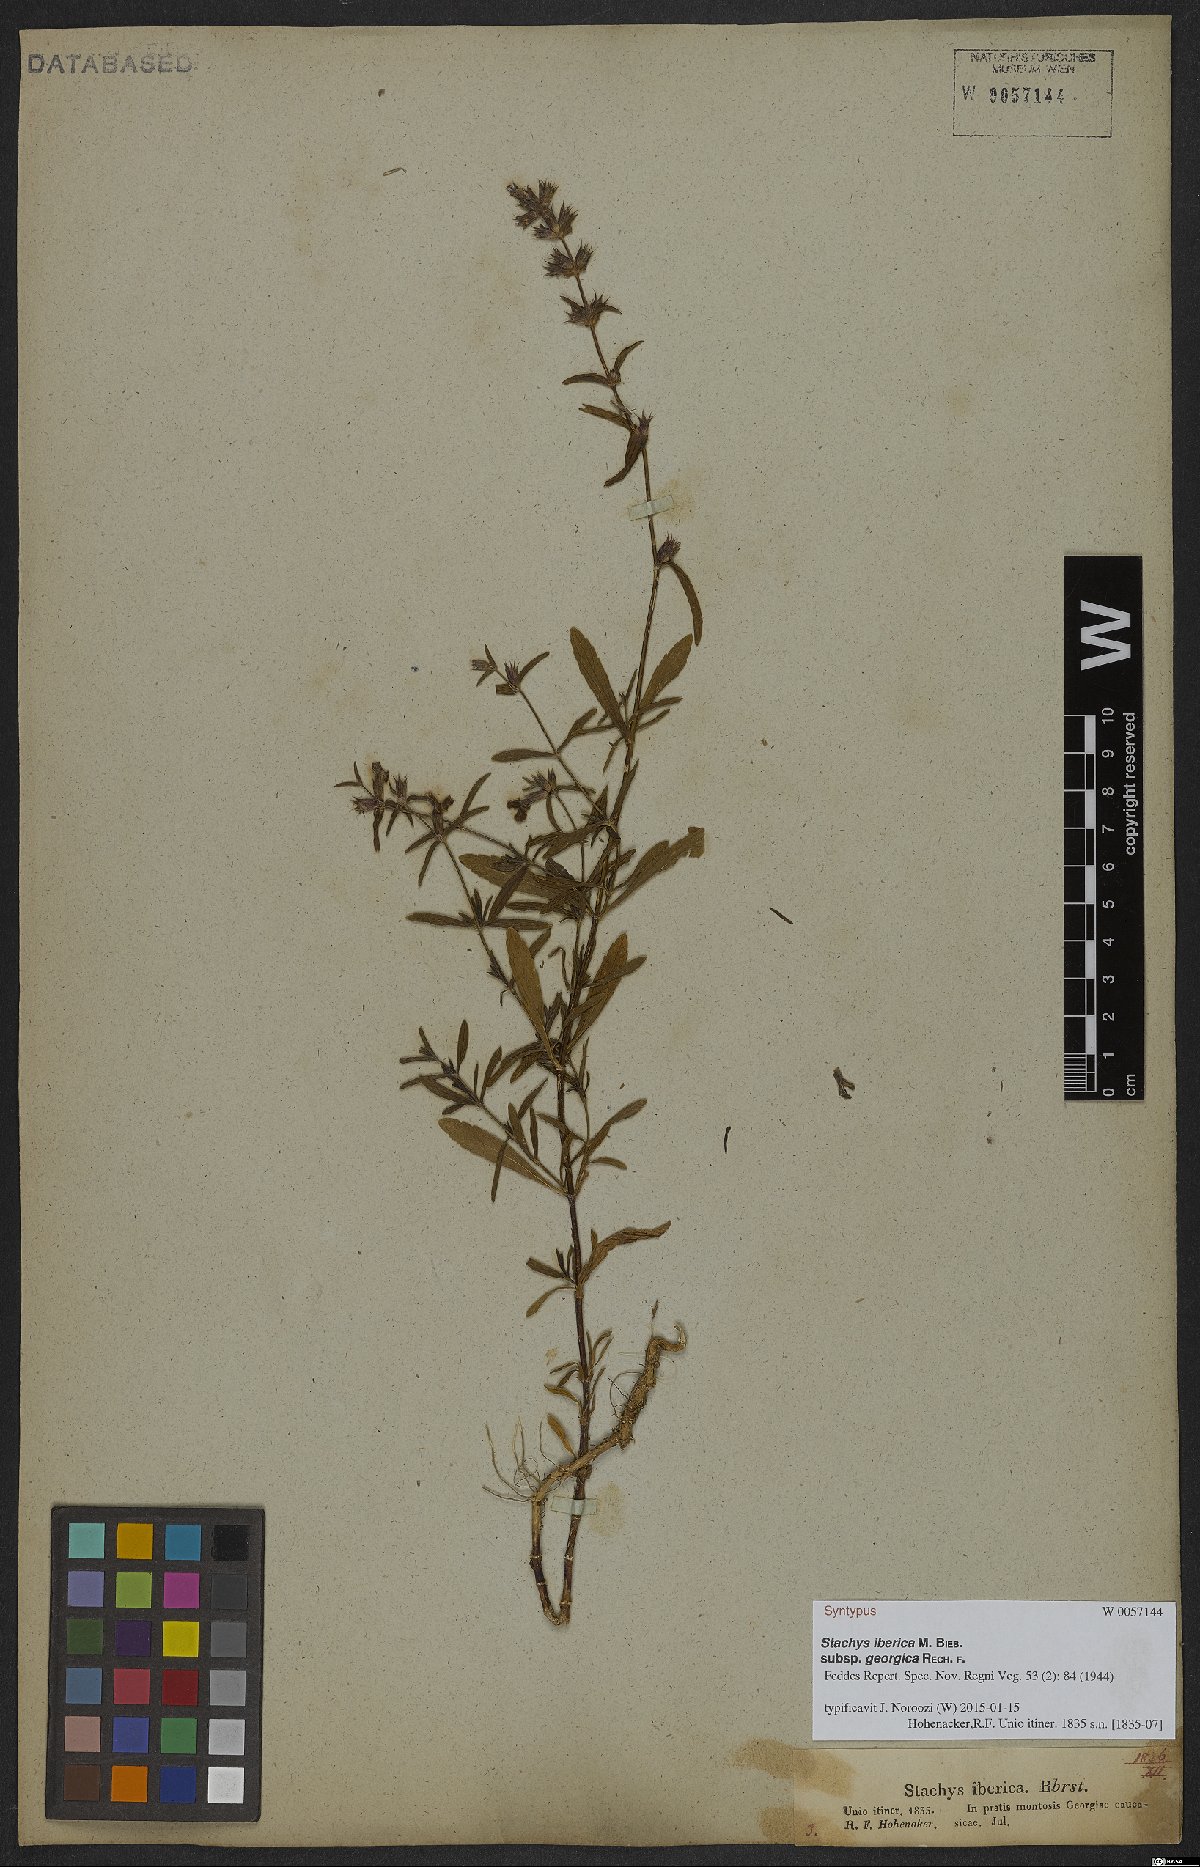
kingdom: Plantae
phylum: Tracheophyta
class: Magnoliopsida
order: Lamiales
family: Lamiaceae
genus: Stachys
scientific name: Stachys iberica
